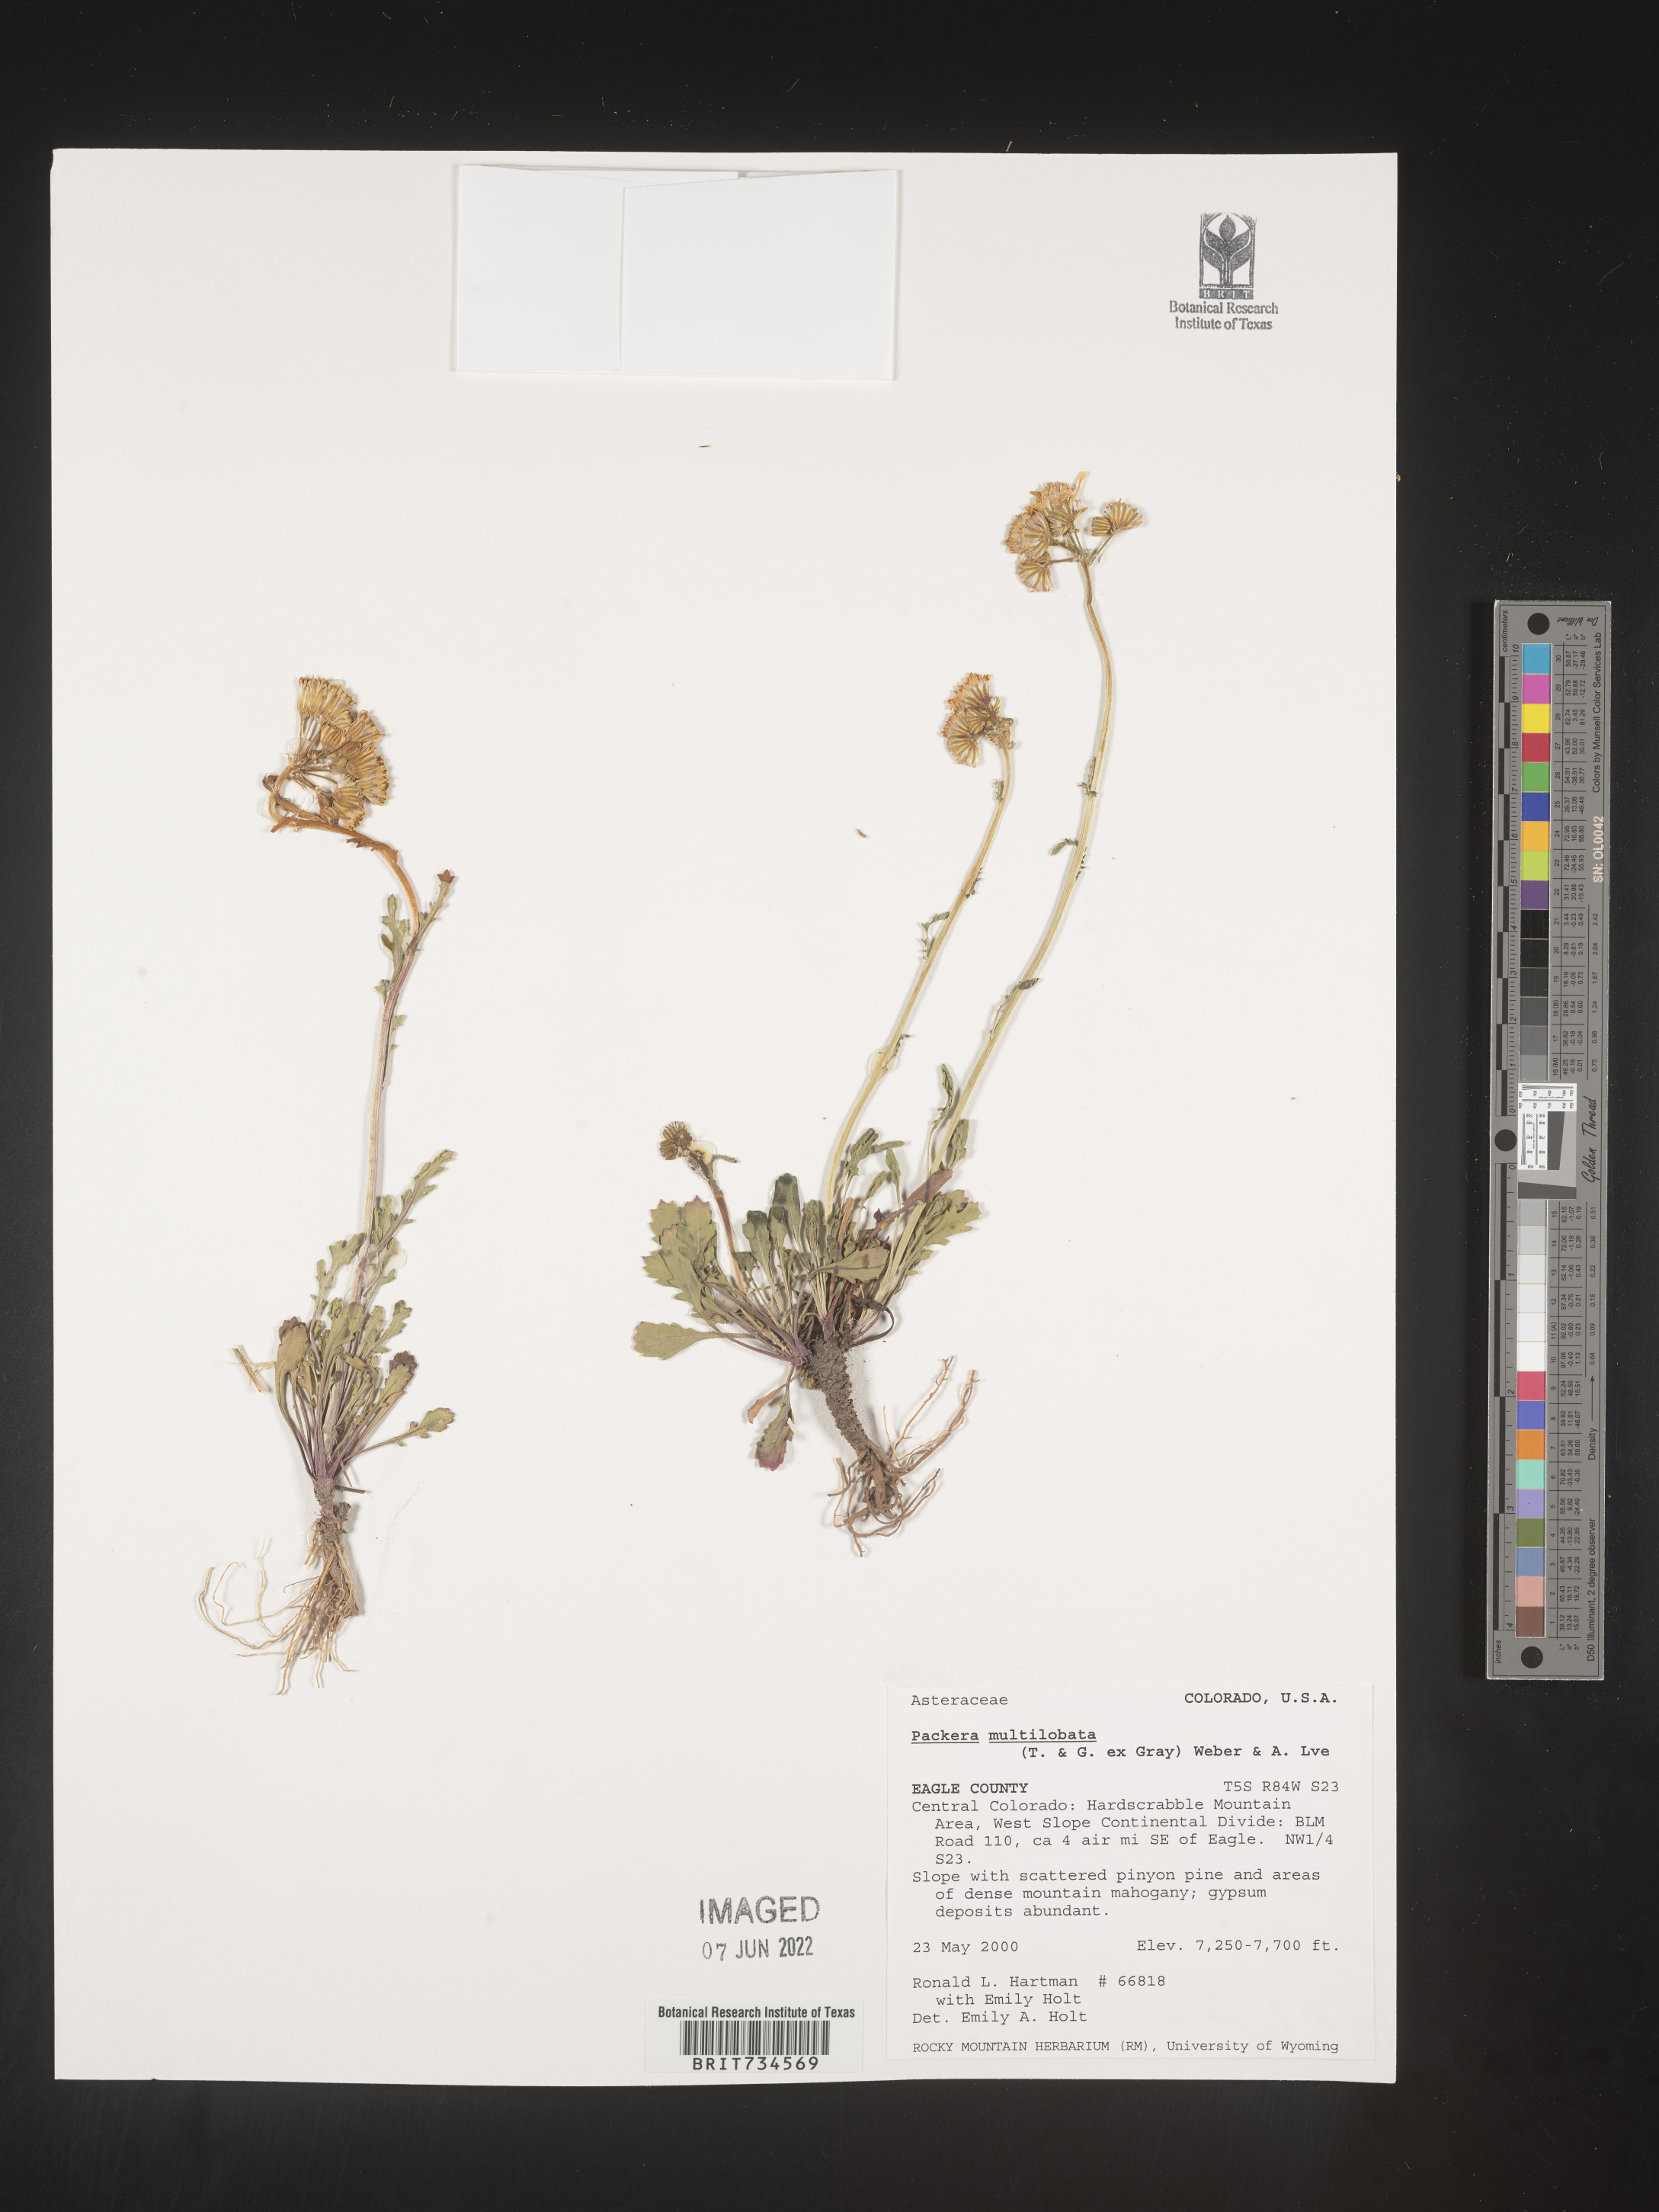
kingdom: Plantae
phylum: Tracheophyta
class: Magnoliopsida
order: Asterales
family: Asteraceae
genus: Packera
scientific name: Packera multilobata
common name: Lobe-leaf groundsel
